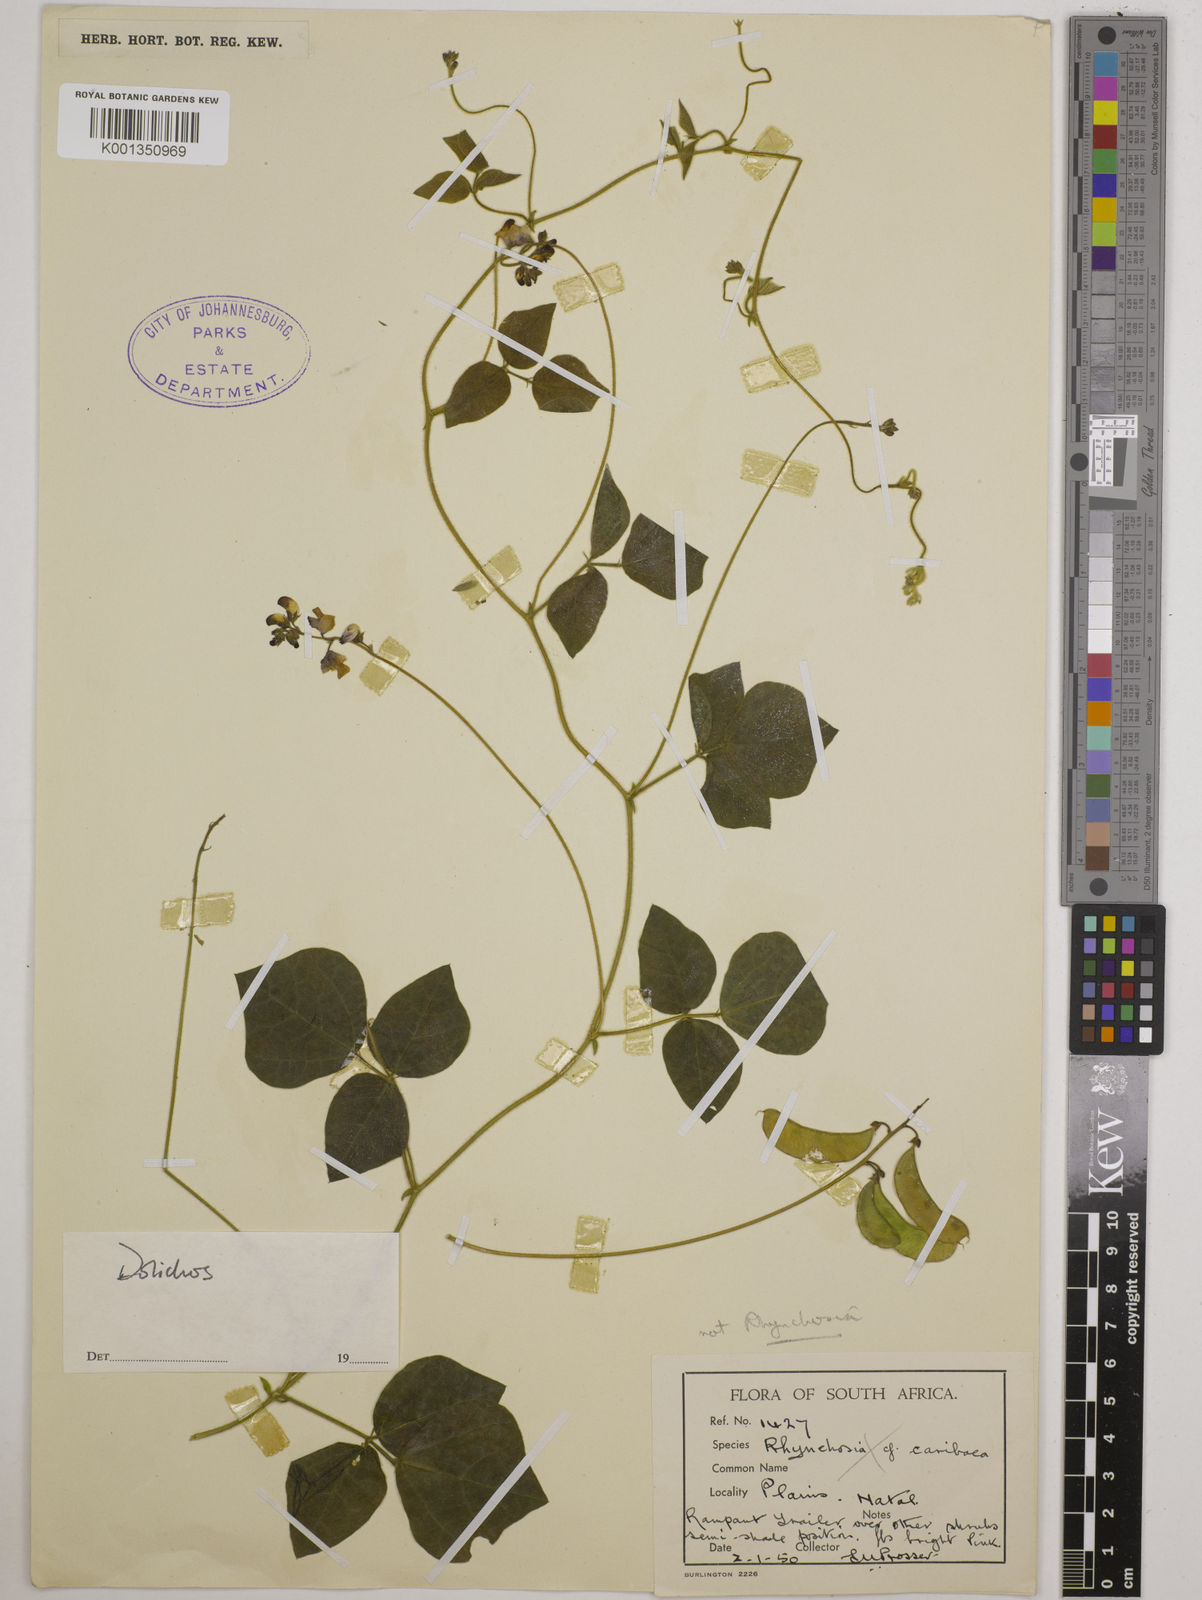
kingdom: Plantae
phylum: Tracheophyta
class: Magnoliopsida
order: Fabales
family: Fabaceae
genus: Dolichos
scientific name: Dolichos
